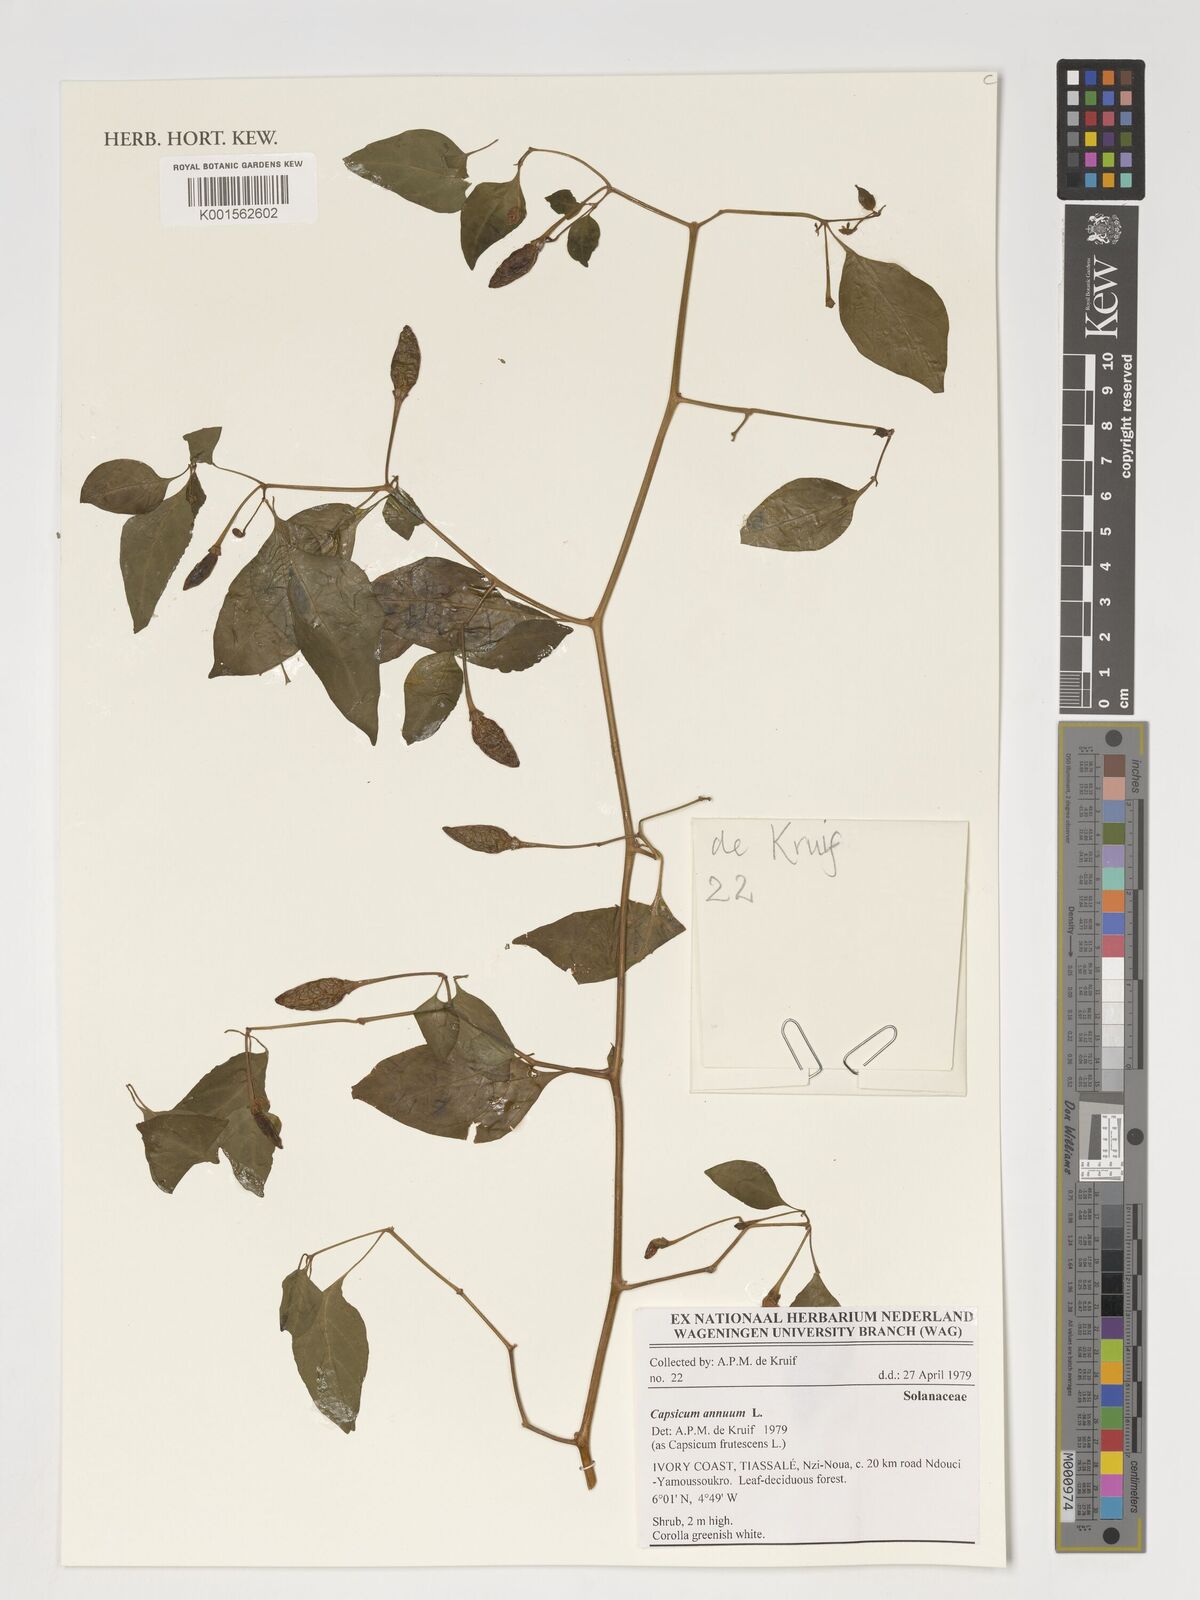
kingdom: Plantae
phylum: Tracheophyta
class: Magnoliopsida
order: Solanales
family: Solanaceae
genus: Capsicum
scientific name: Capsicum annuum
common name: Sweet pepper
